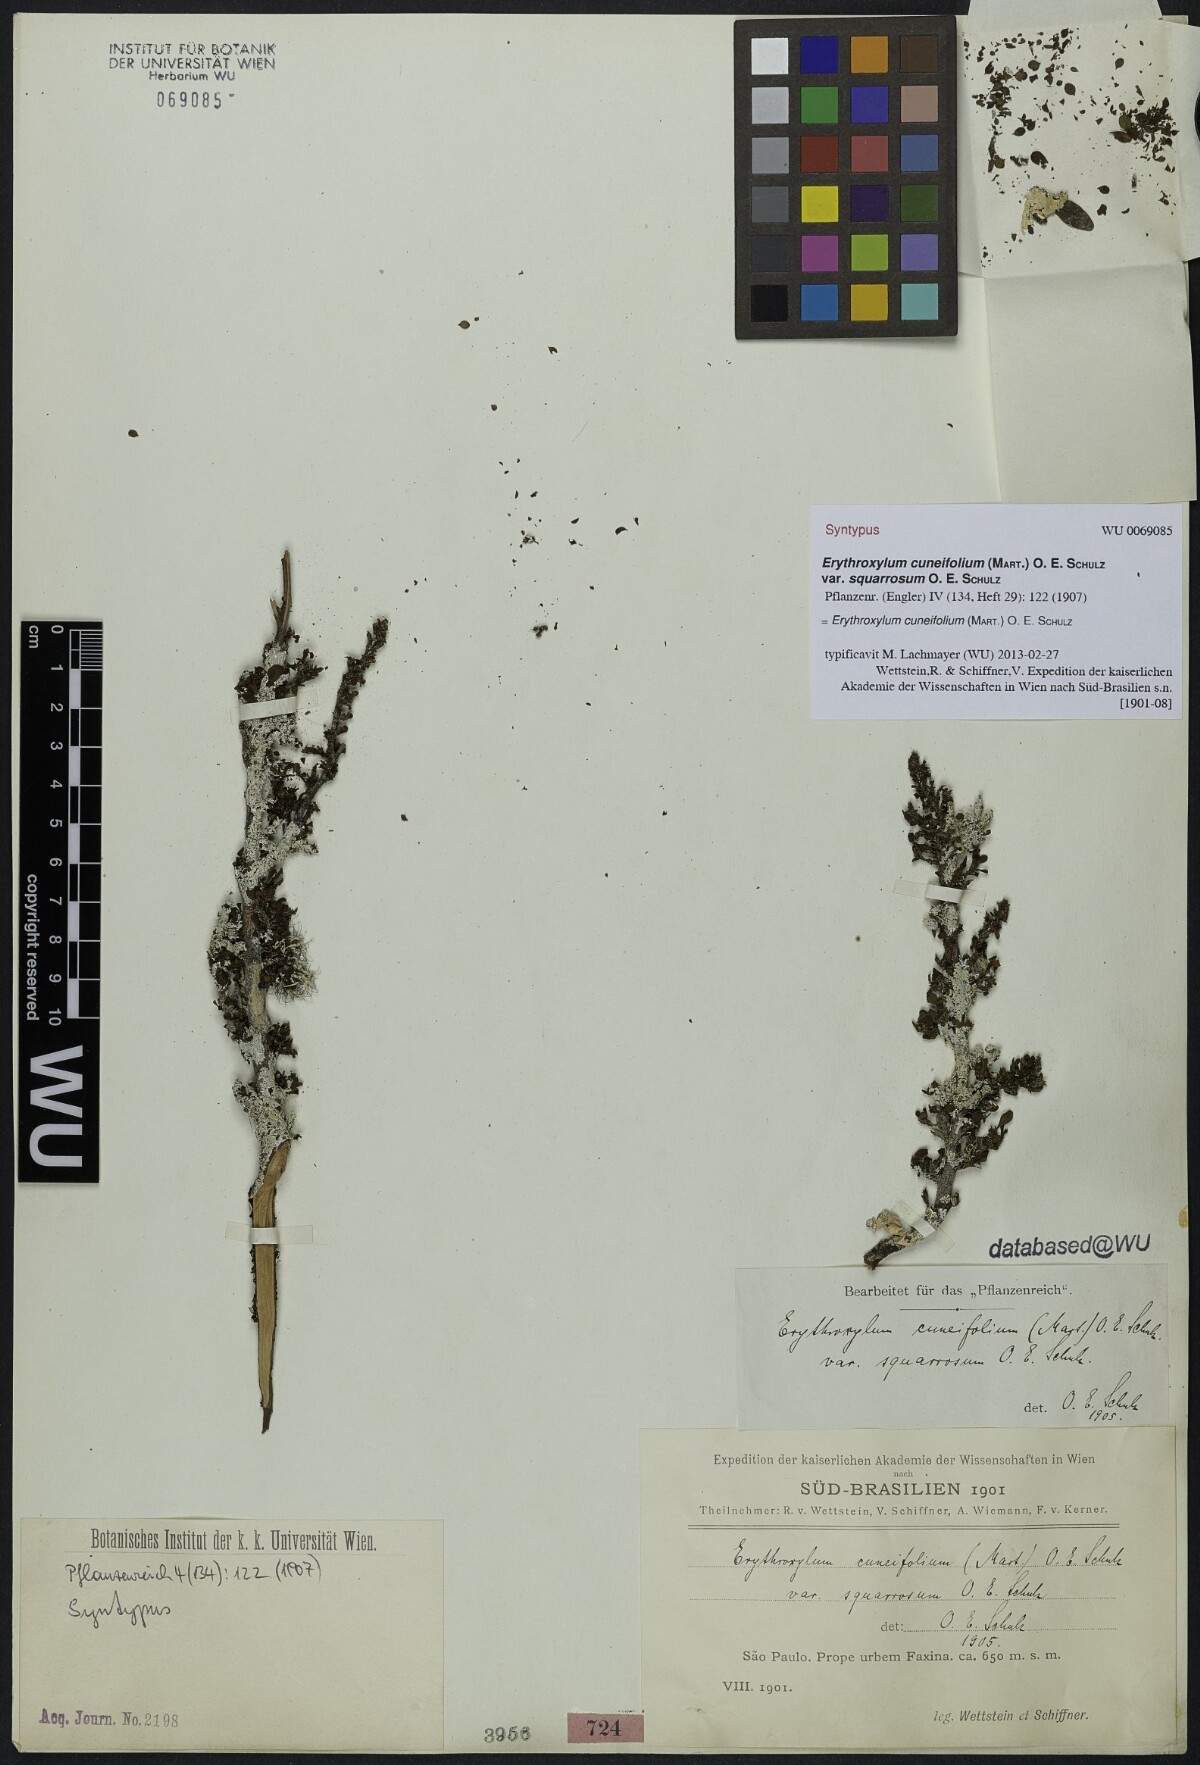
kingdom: Plantae
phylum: Tracheophyta
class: Magnoliopsida
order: Malpighiales
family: Erythroxylaceae
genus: Erythroxylum
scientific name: Erythroxylum cuneifolium
